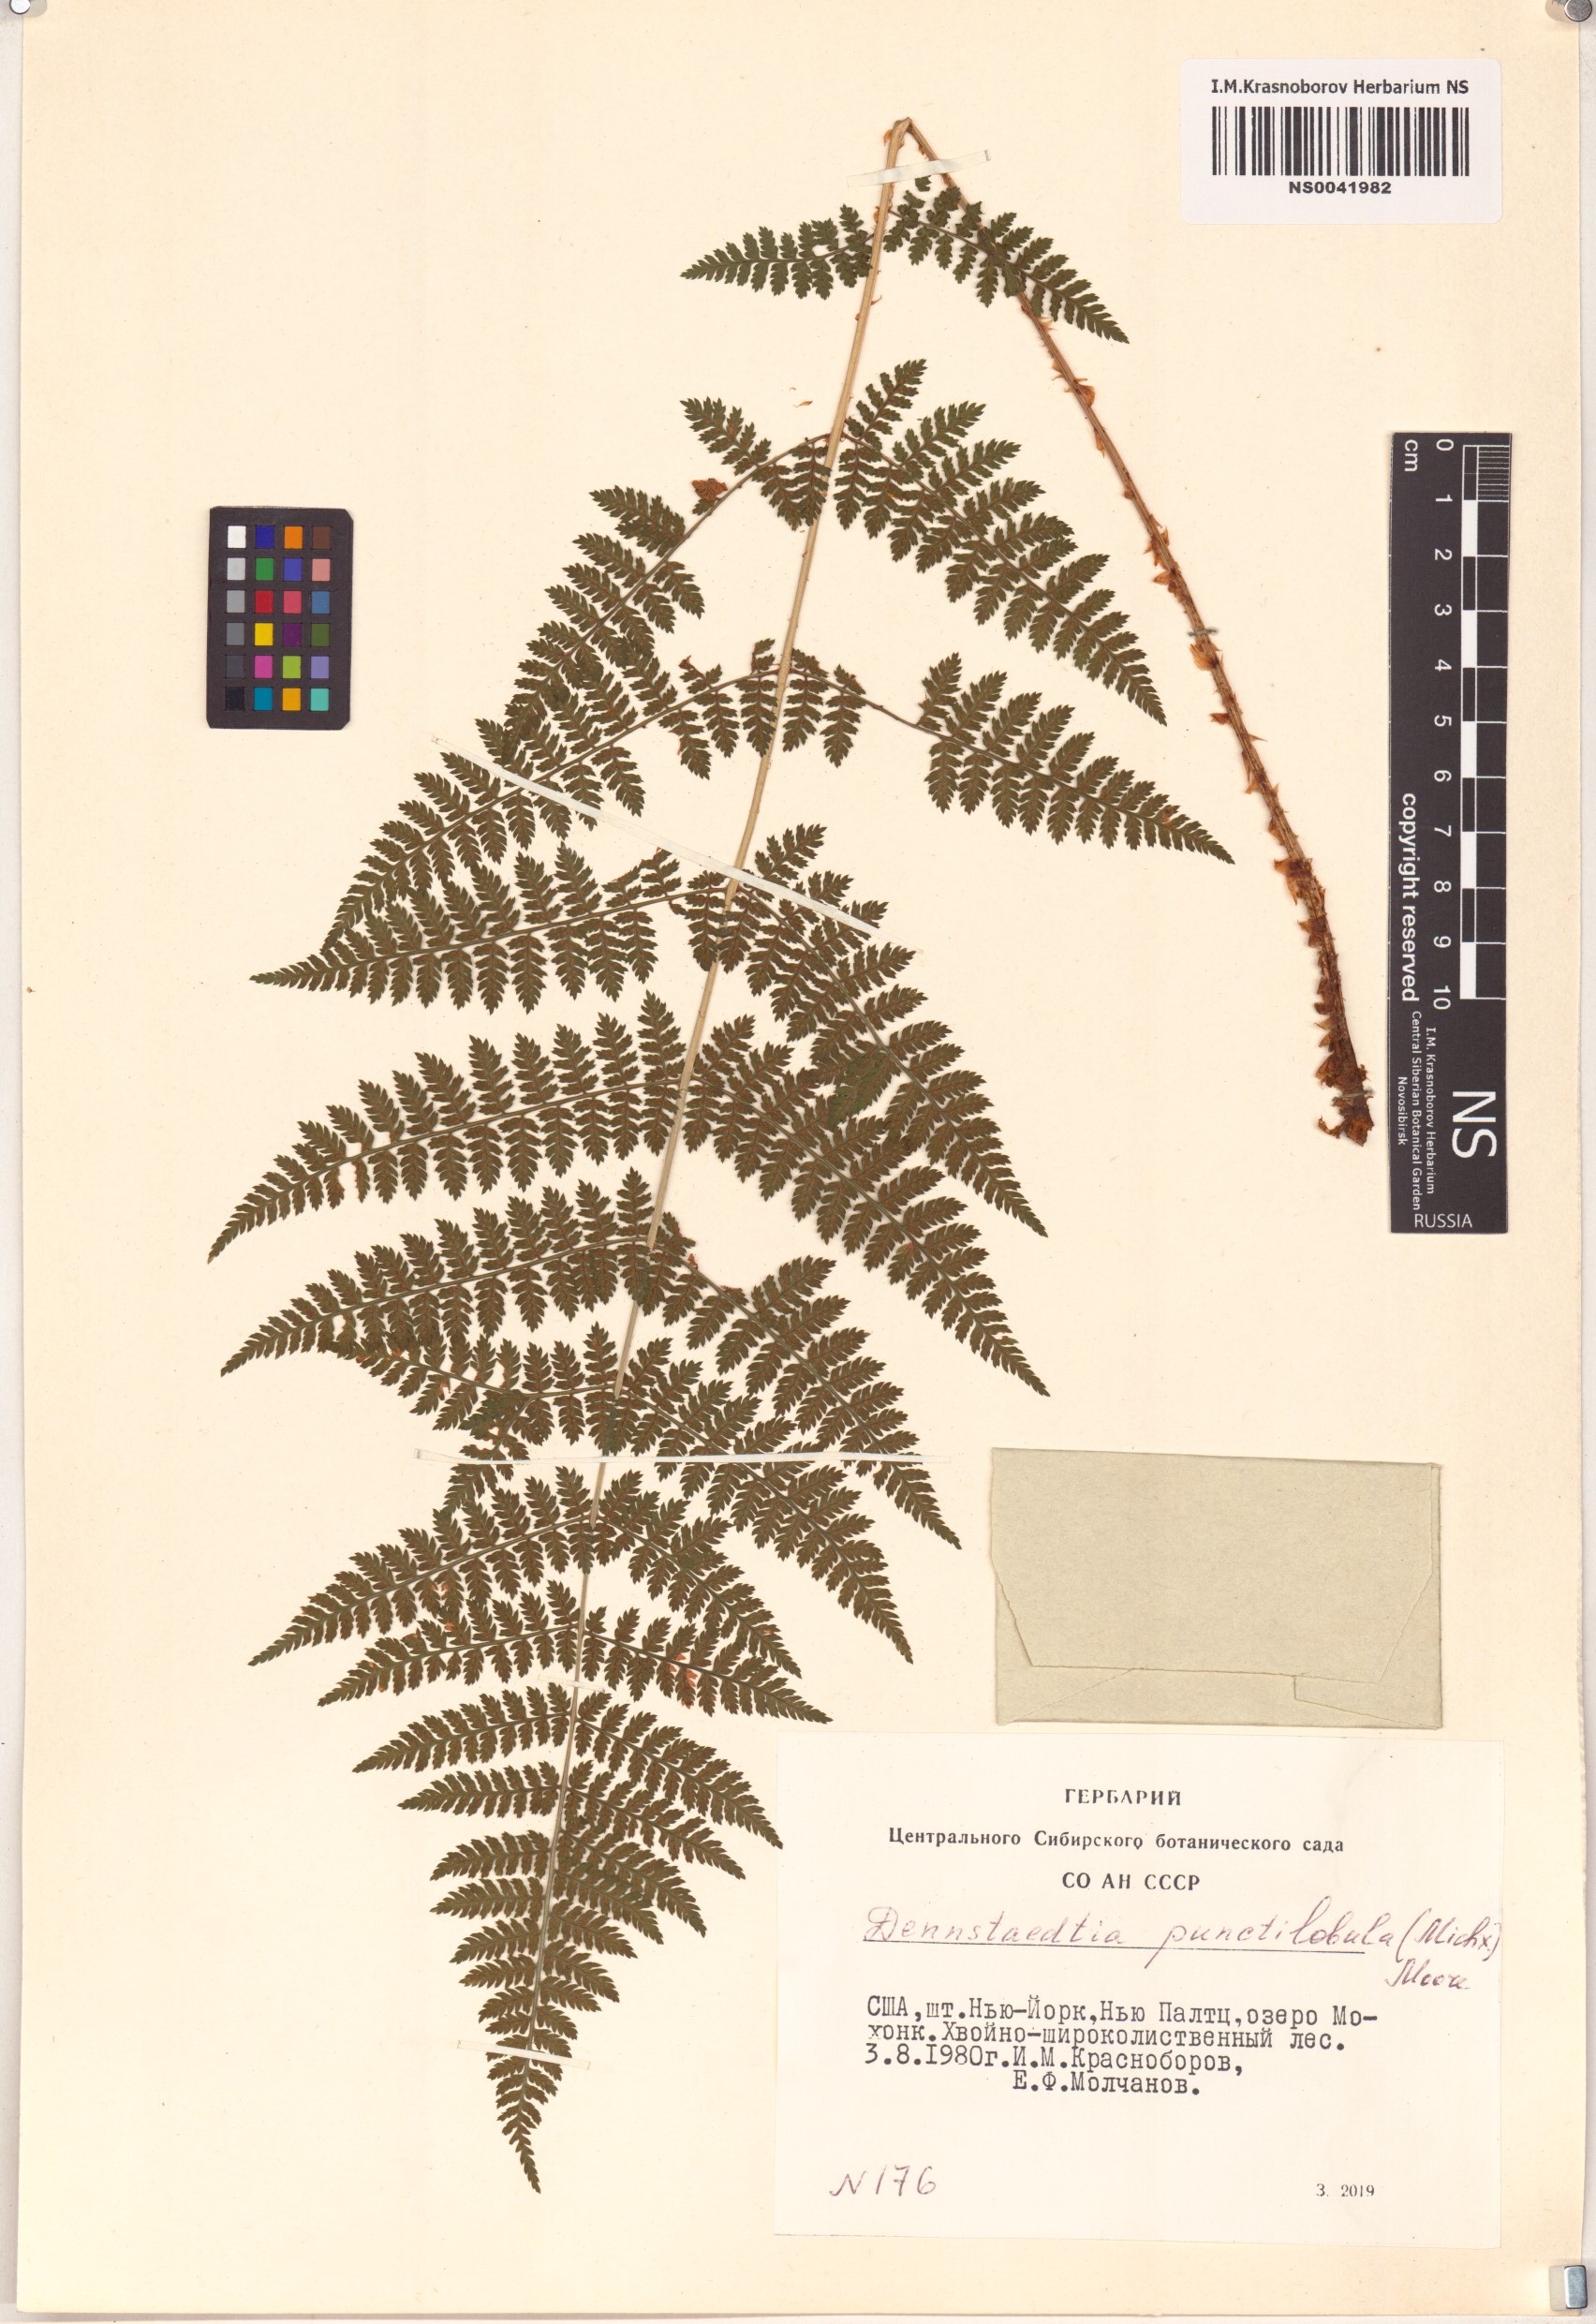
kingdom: Plantae
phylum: Tracheophyta
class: Polypodiopsida
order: Polypodiales
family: Dennstaedtiaceae
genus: Sitobolium
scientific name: Sitobolium punctilobum
